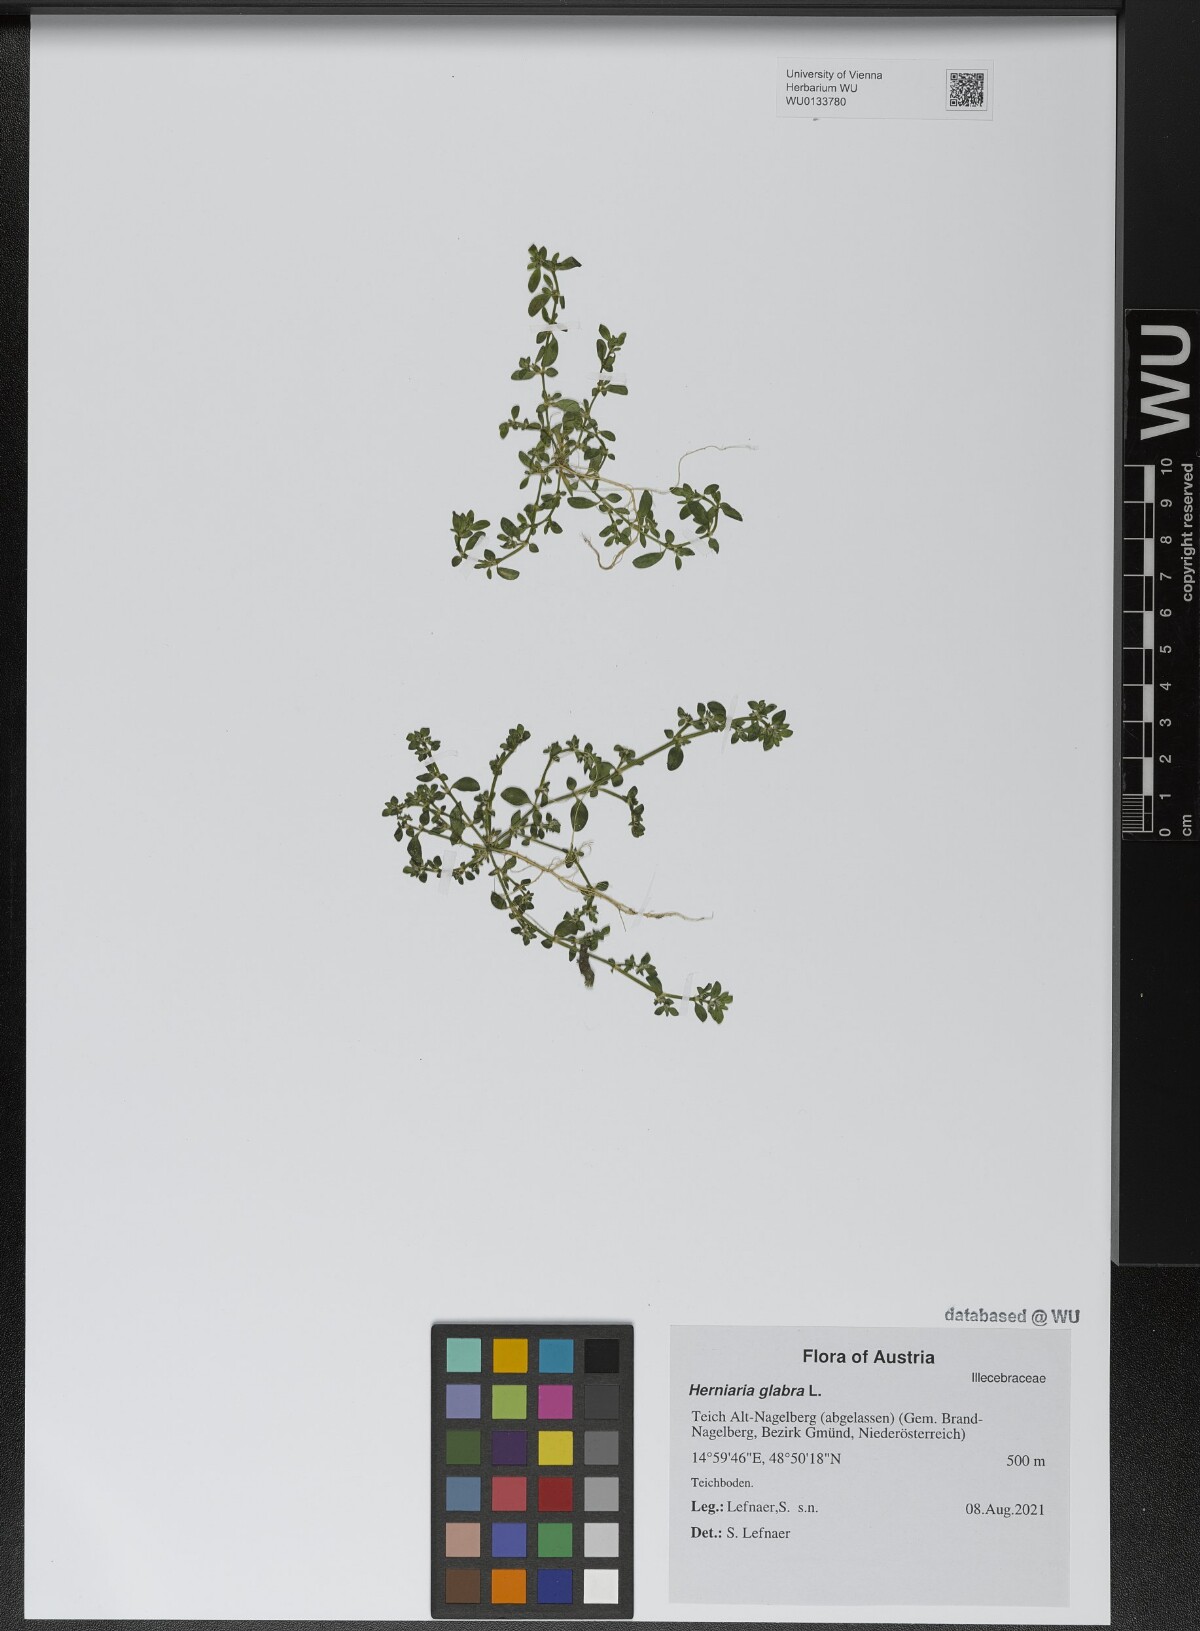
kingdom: Plantae
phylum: Tracheophyta
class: Magnoliopsida
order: Caryophyllales
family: Caryophyllaceae
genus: Herniaria
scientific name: Herniaria glabra
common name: Smooth rupturewort
